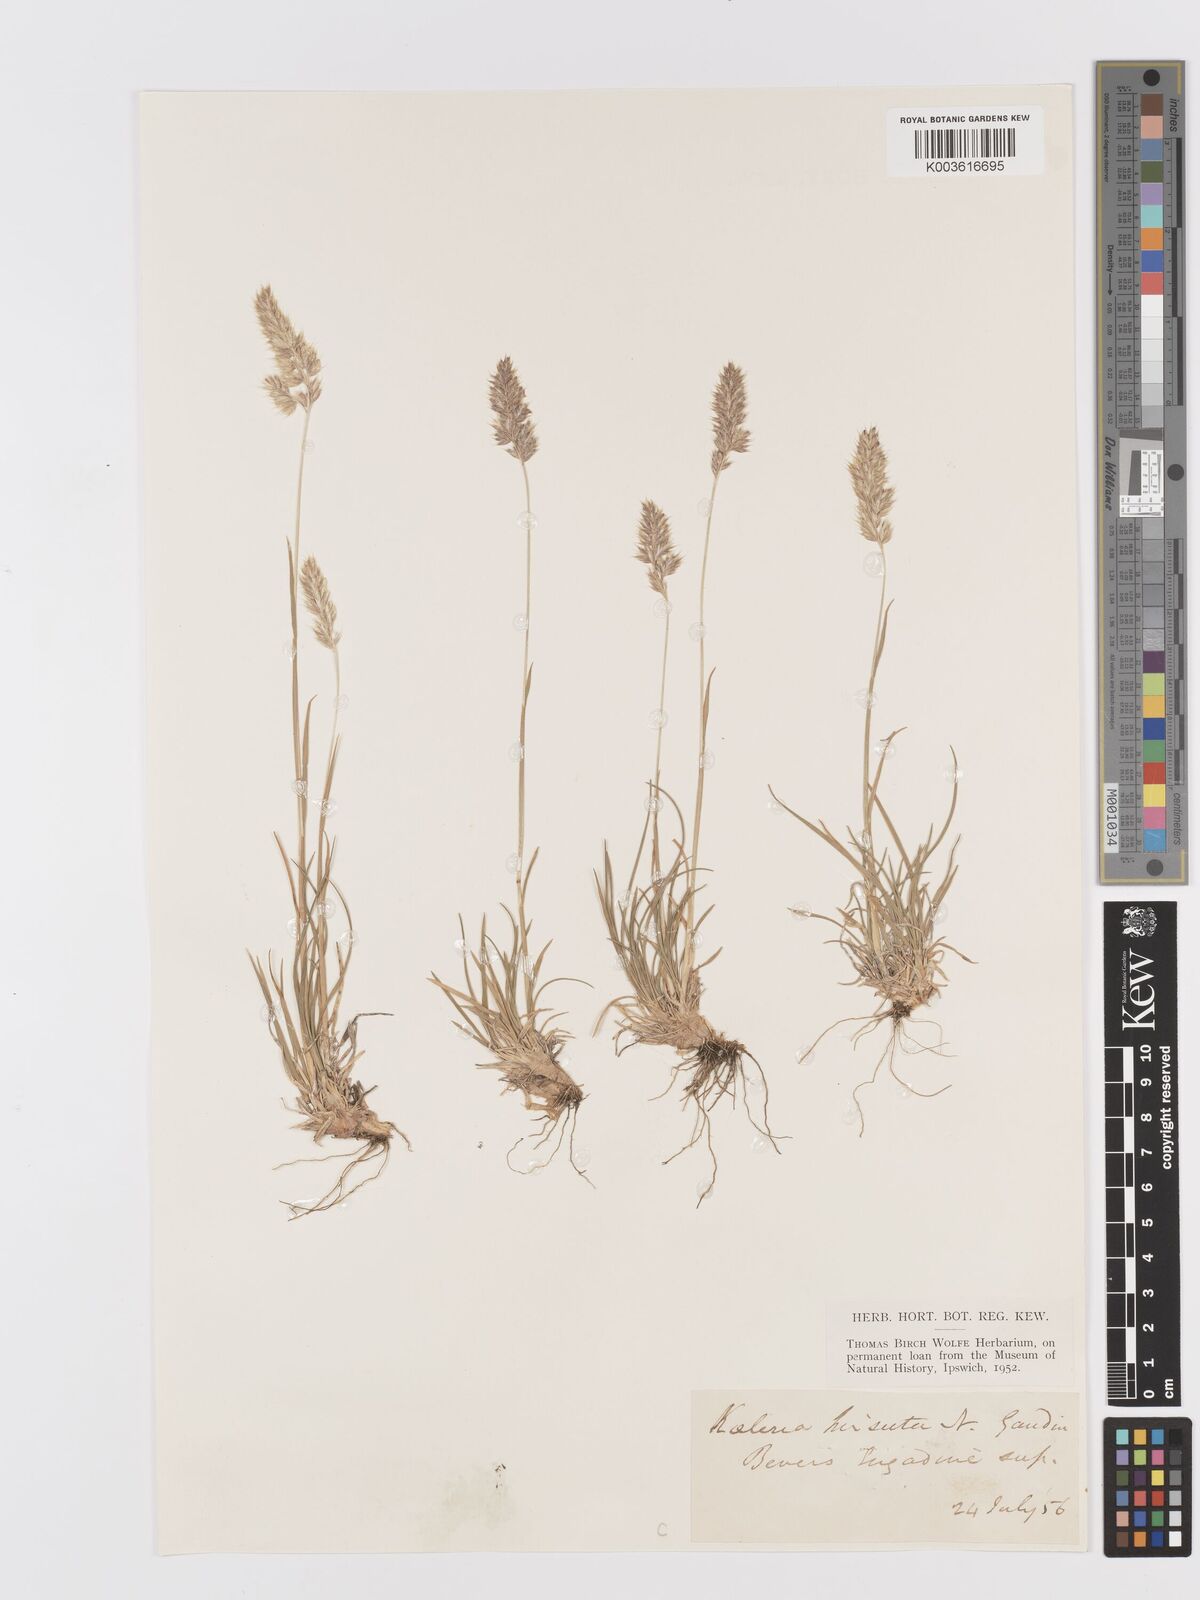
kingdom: Plantae
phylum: Tracheophyta
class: Liliopsida
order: Poales
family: Poaceae
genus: Koeleria
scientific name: Koeleria hirsuta
